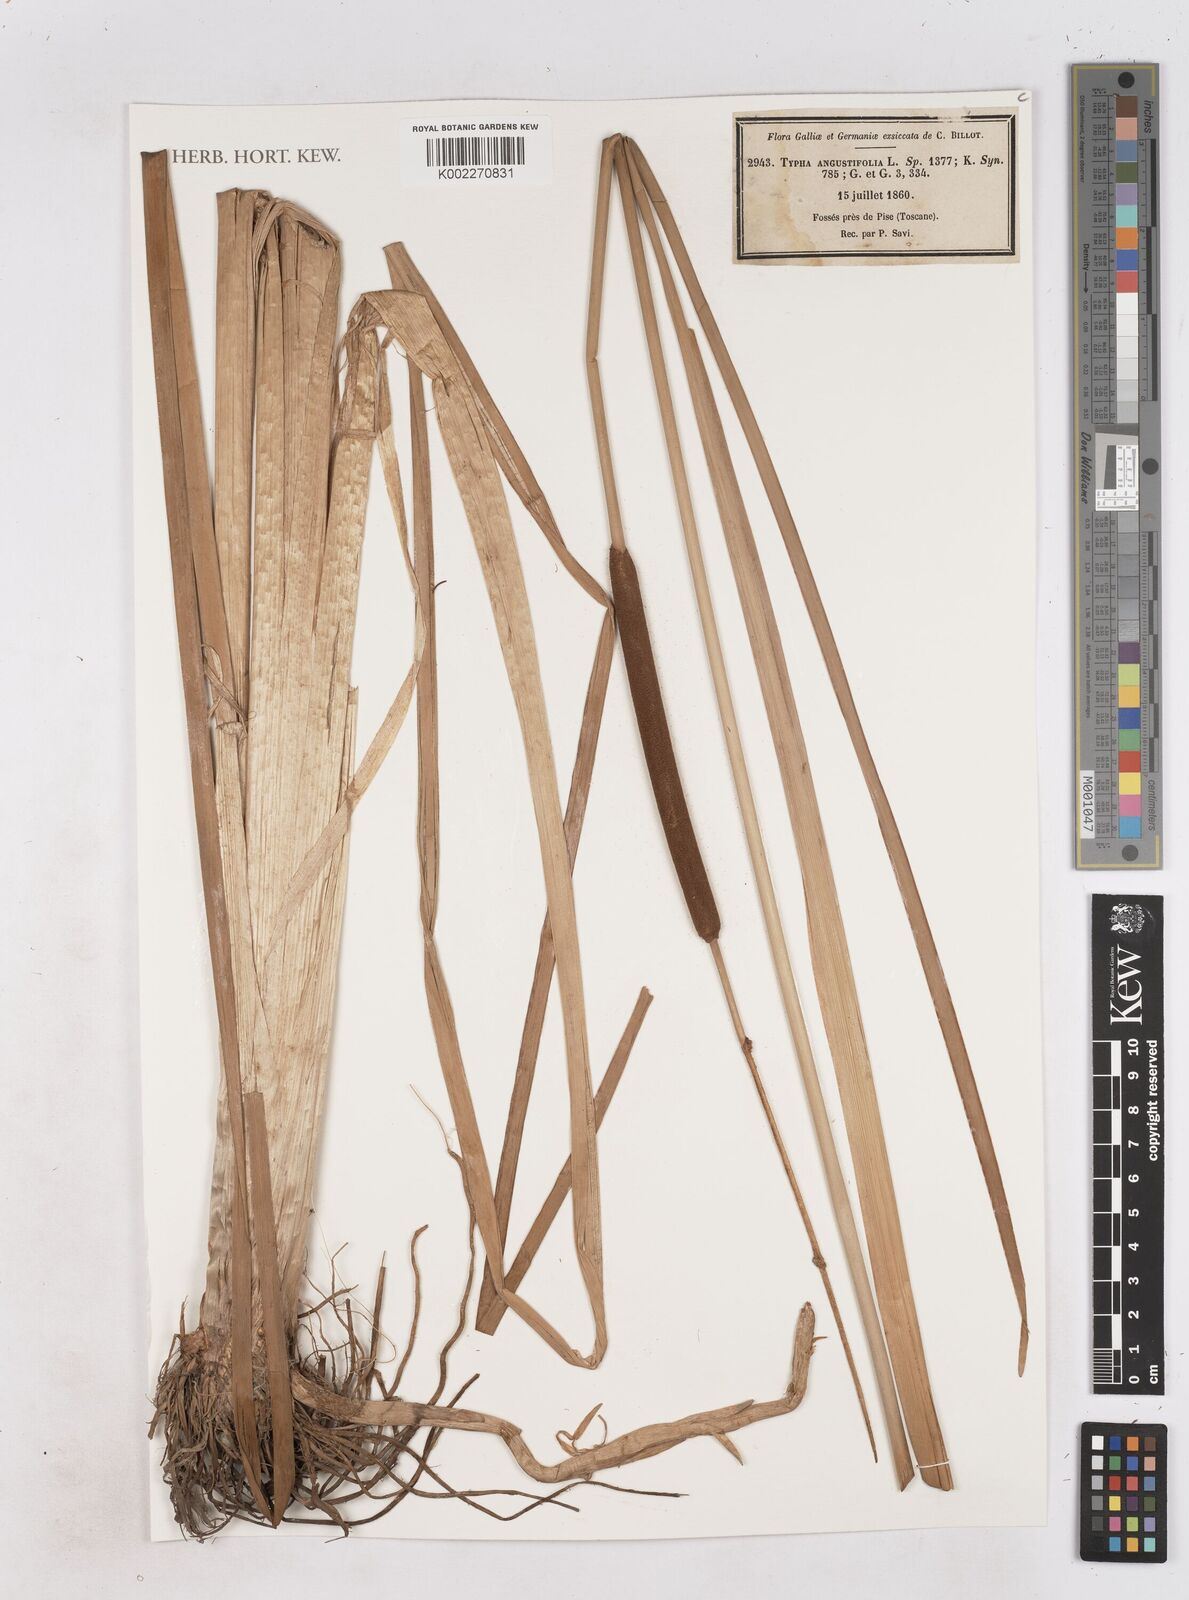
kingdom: Plantae
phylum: Tracheophyta
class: Liliopsida
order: Poales
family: Typhaceae
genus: Typha
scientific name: Typha angustifolia
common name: Lesser bulrush
